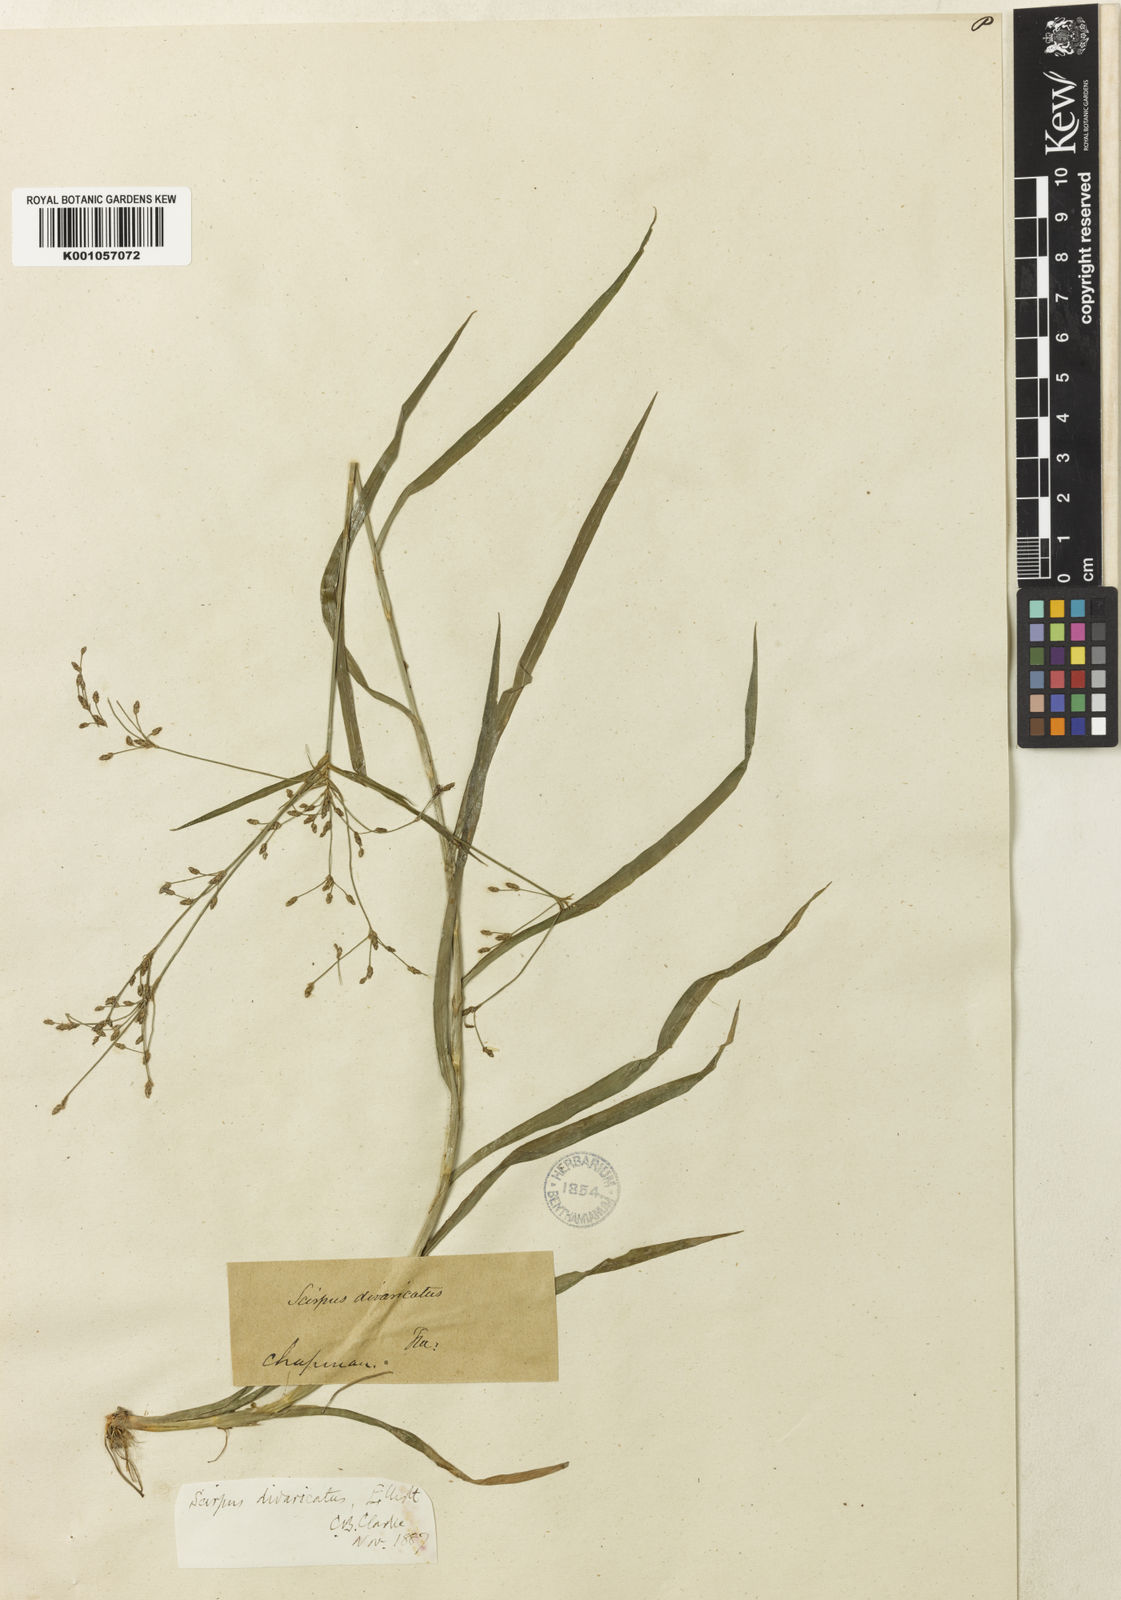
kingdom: Plantae
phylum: Tracheophyta
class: Liliopsida
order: Poales
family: Cyperaceae
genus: Scirpus
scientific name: Scirpus divaricatus
